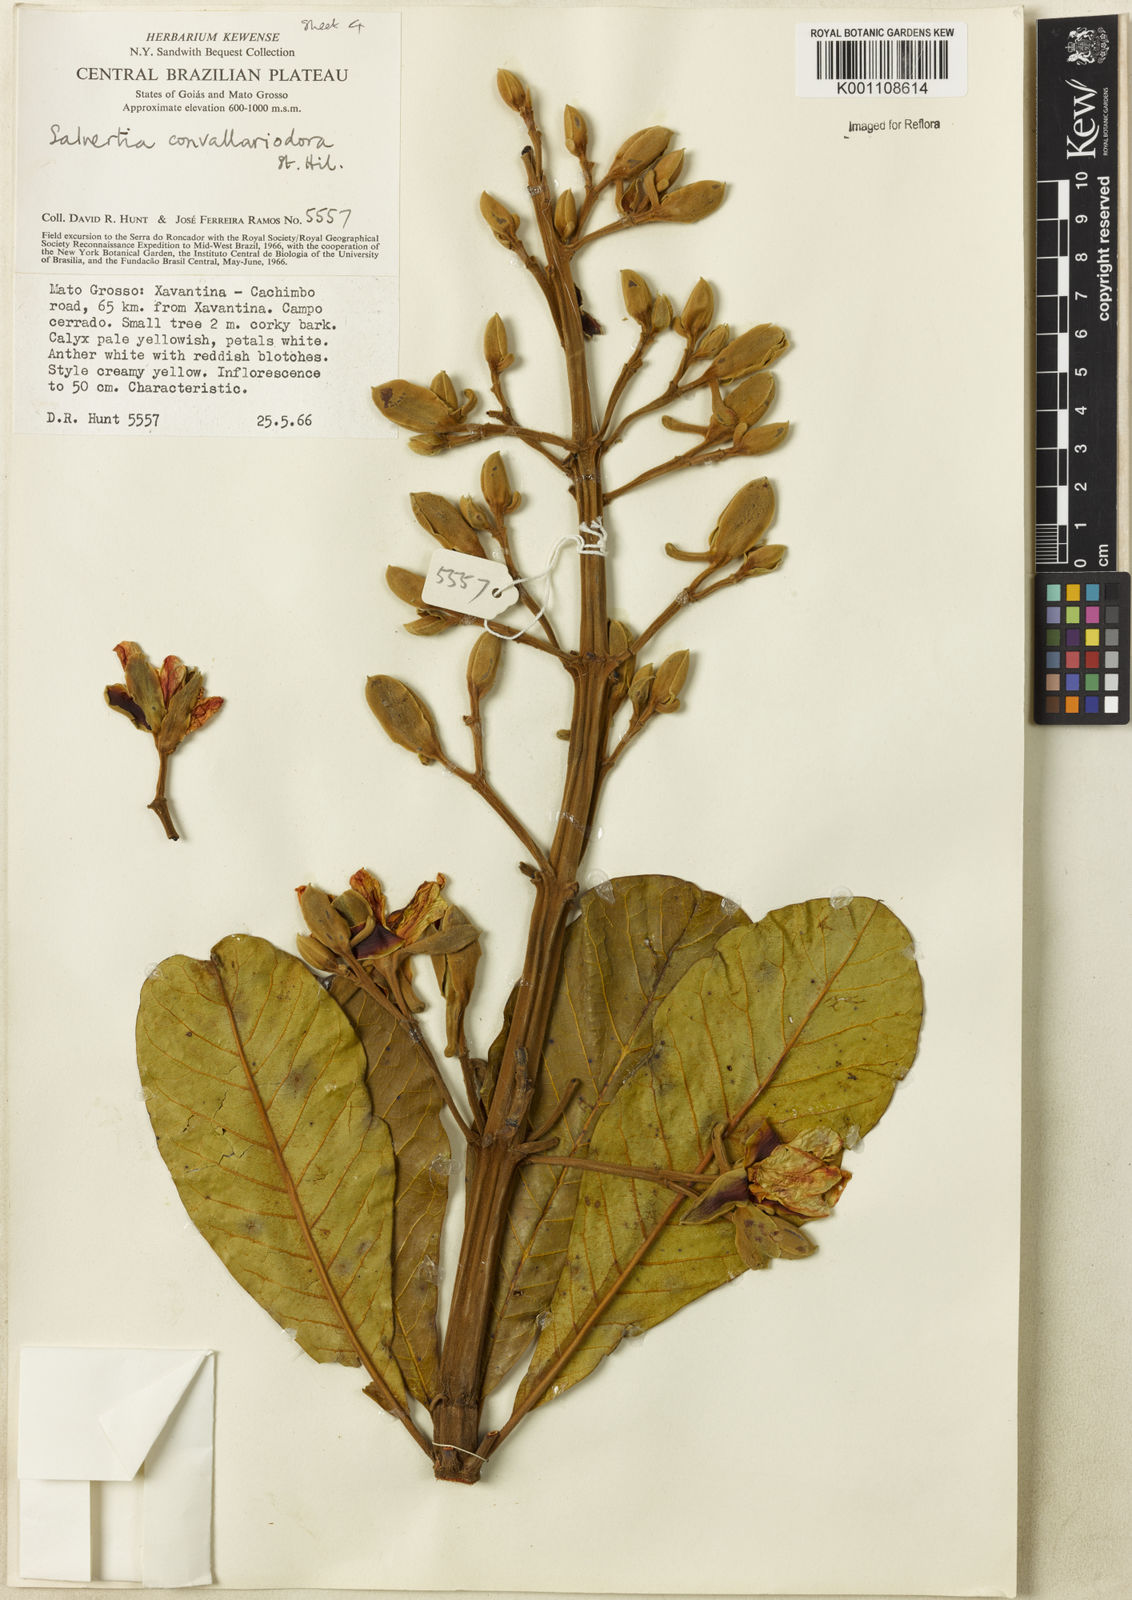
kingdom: Plantae
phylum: Tracheophyta
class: Magnoliopsida
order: Myrtales
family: Vochysiaceae
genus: Salvertia
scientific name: Salvertia convallariodora
